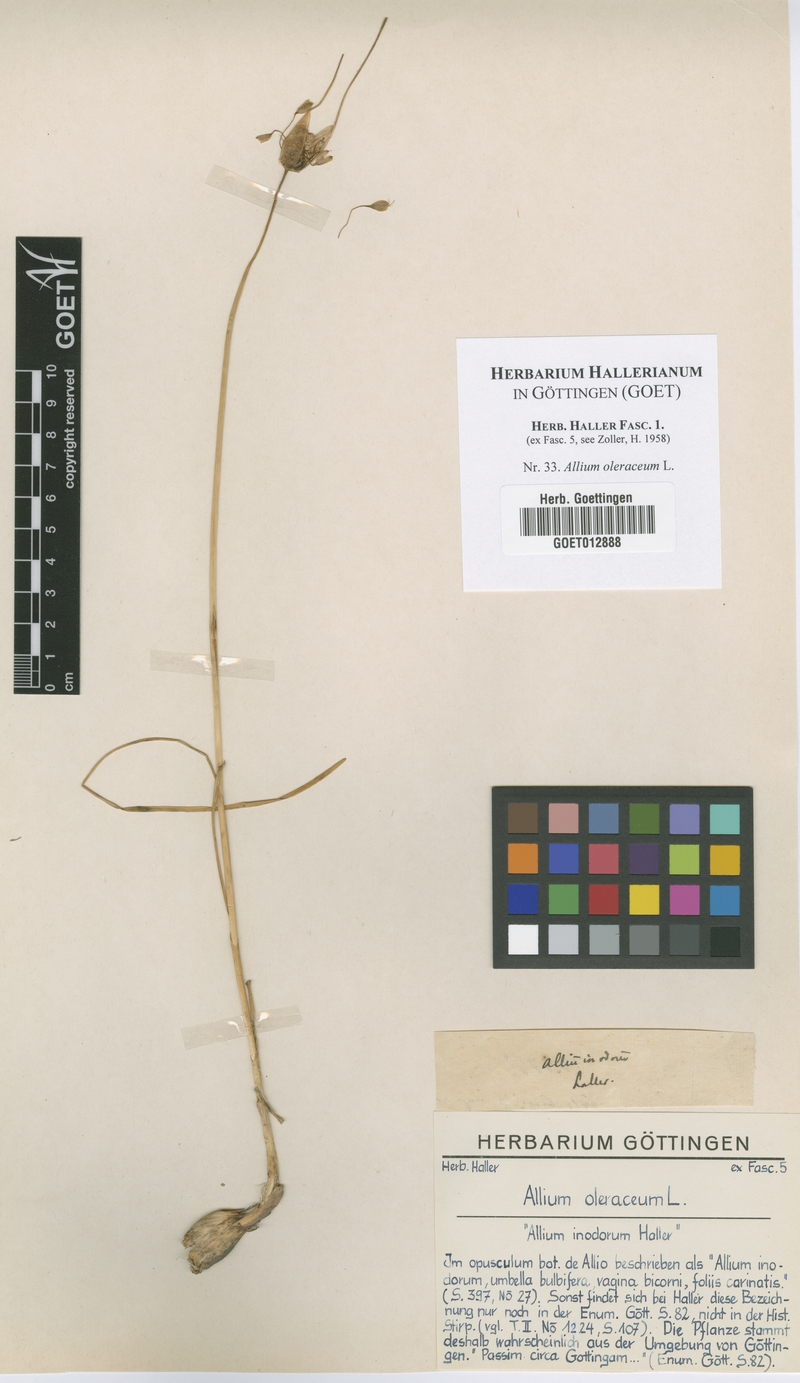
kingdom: Plantae
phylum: Tracheophyta
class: Liliopsida
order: Asparagales
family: Amaryllidaceae
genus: Allium
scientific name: Allium oleraceum
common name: Field garlic
